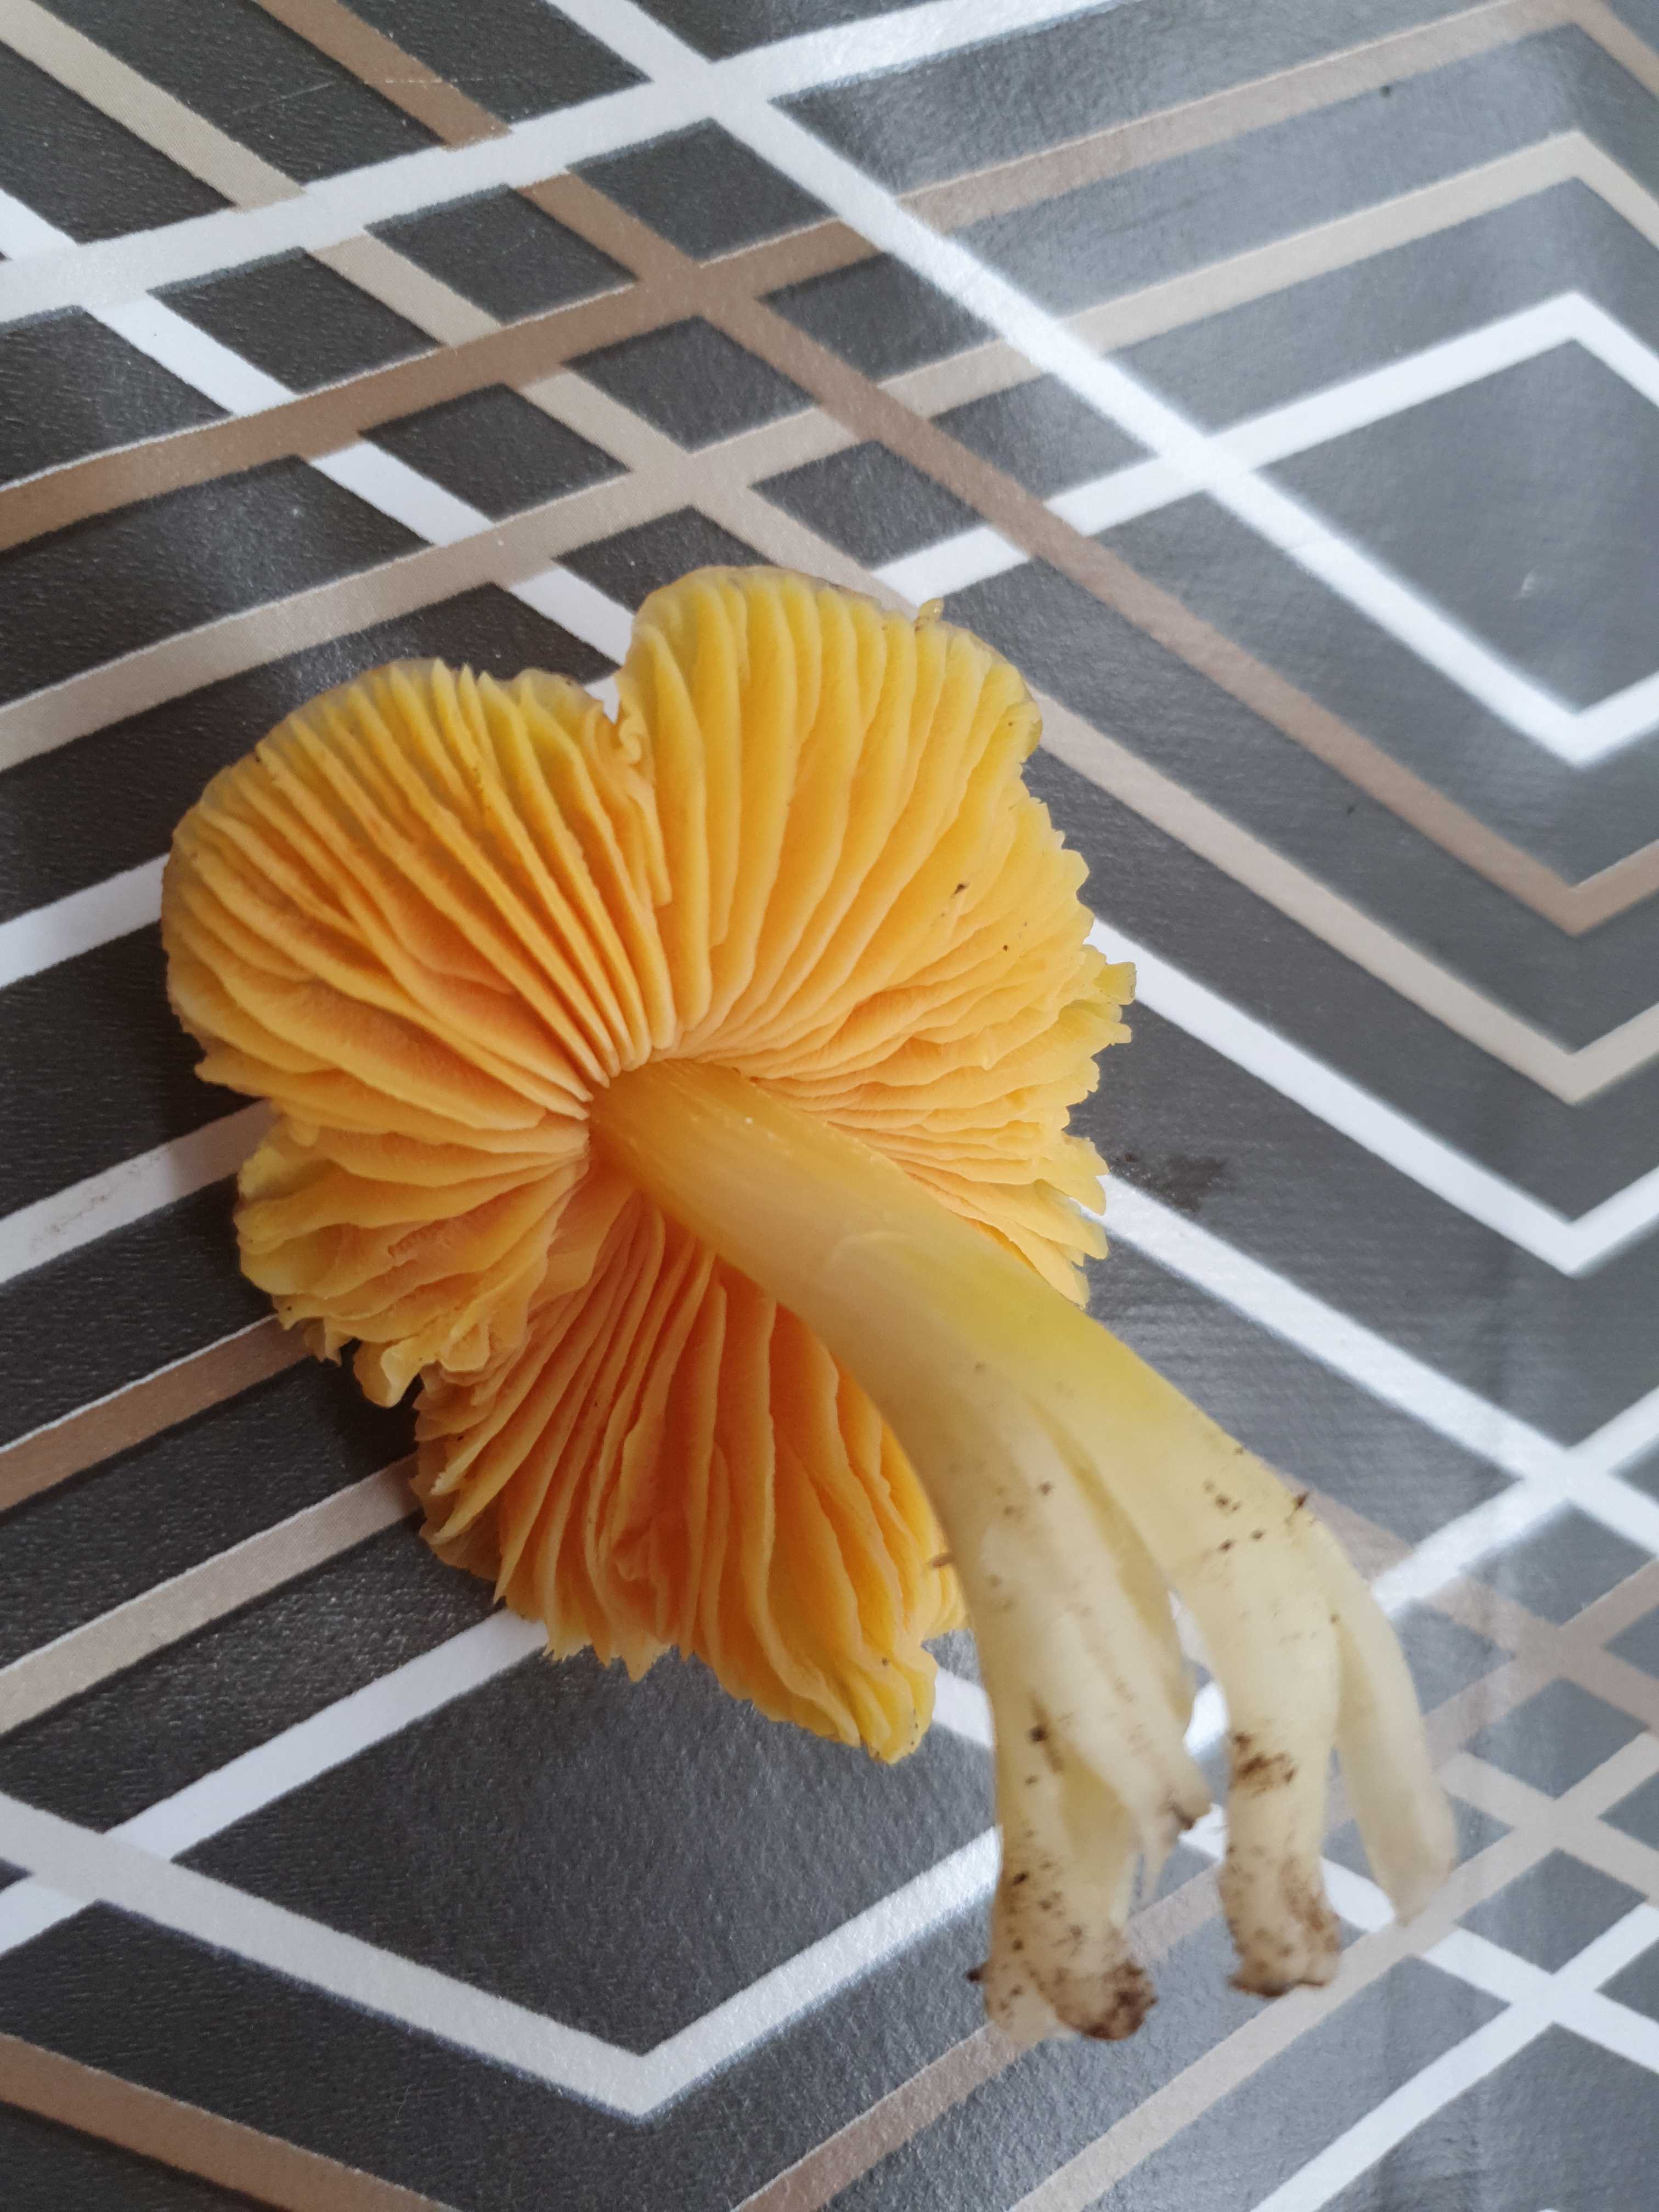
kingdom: Fungi
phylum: Basidiomycota
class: Agaricomycetes
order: Agaricales
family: Hygrophoraceae
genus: Hygrocybe
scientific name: Hygrocybe acutoconica
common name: spidspuklet vokshat
